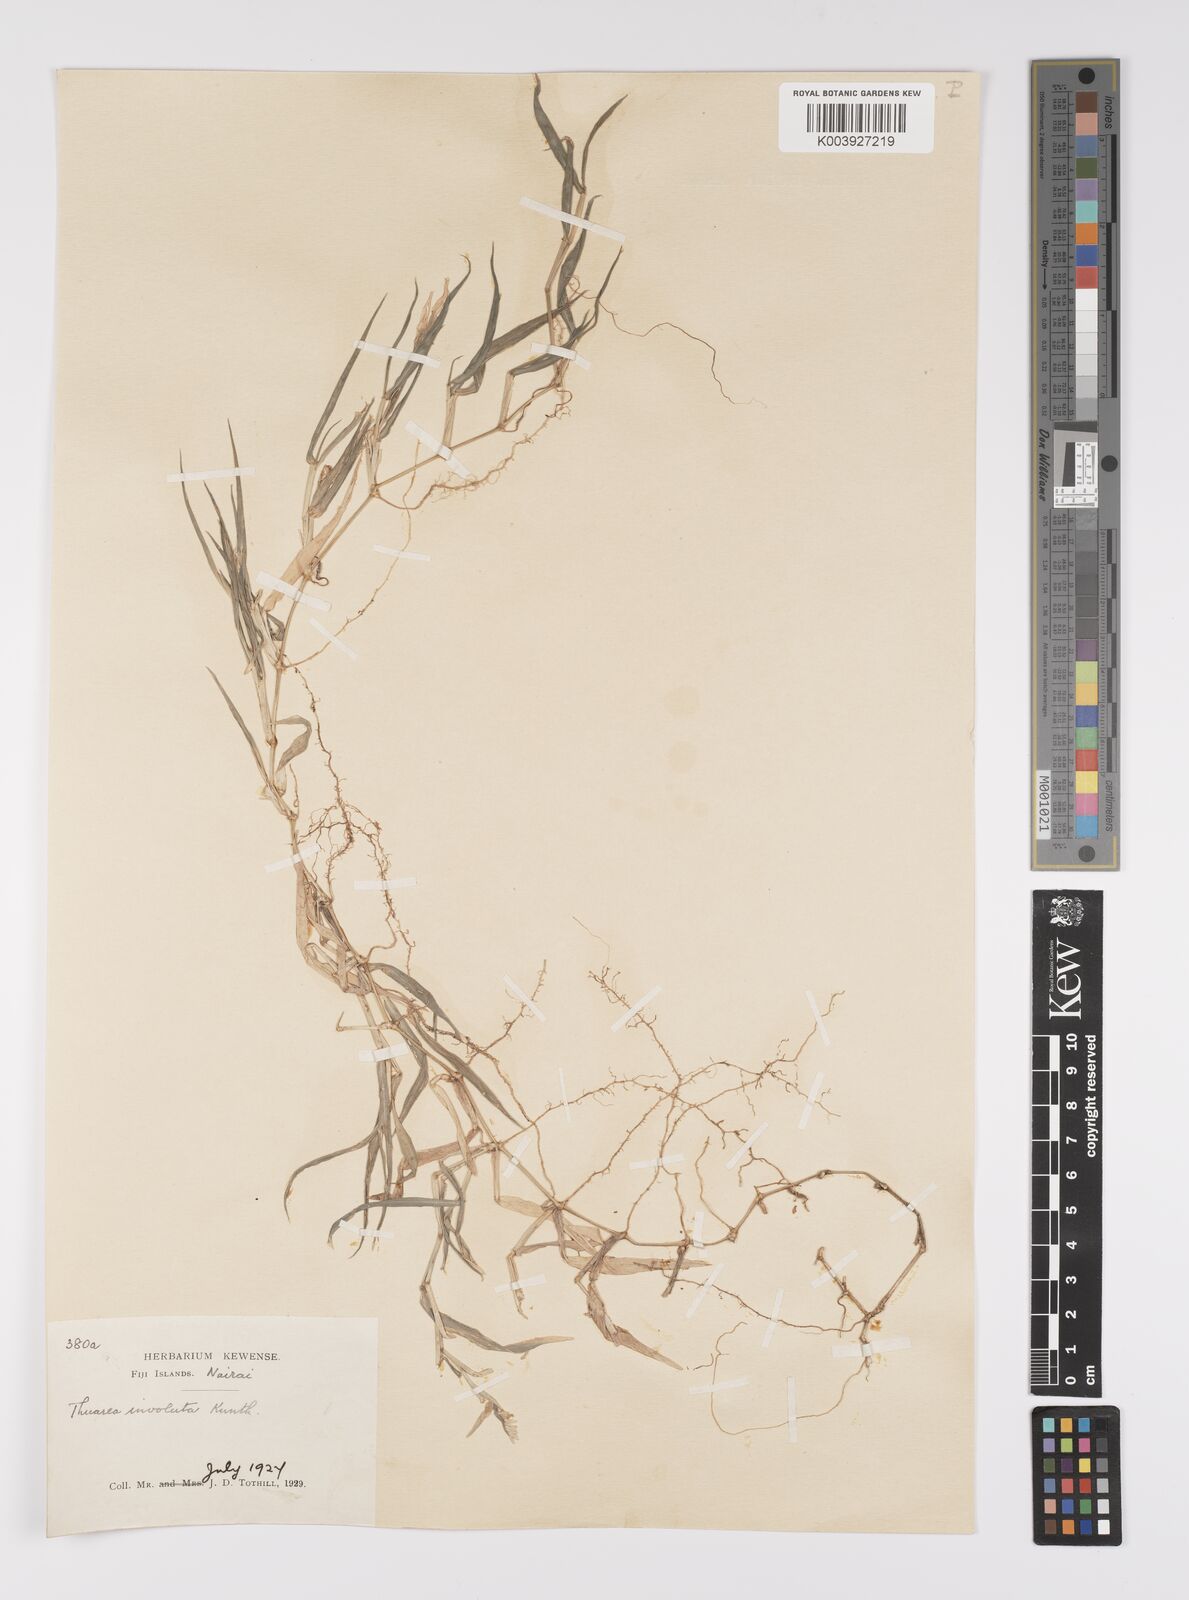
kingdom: Plantae
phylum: Tracheophyta
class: Liliopsida
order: Poales
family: Poaceae
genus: Thuarea
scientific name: Thuarea involuta
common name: Tropical beach grass
